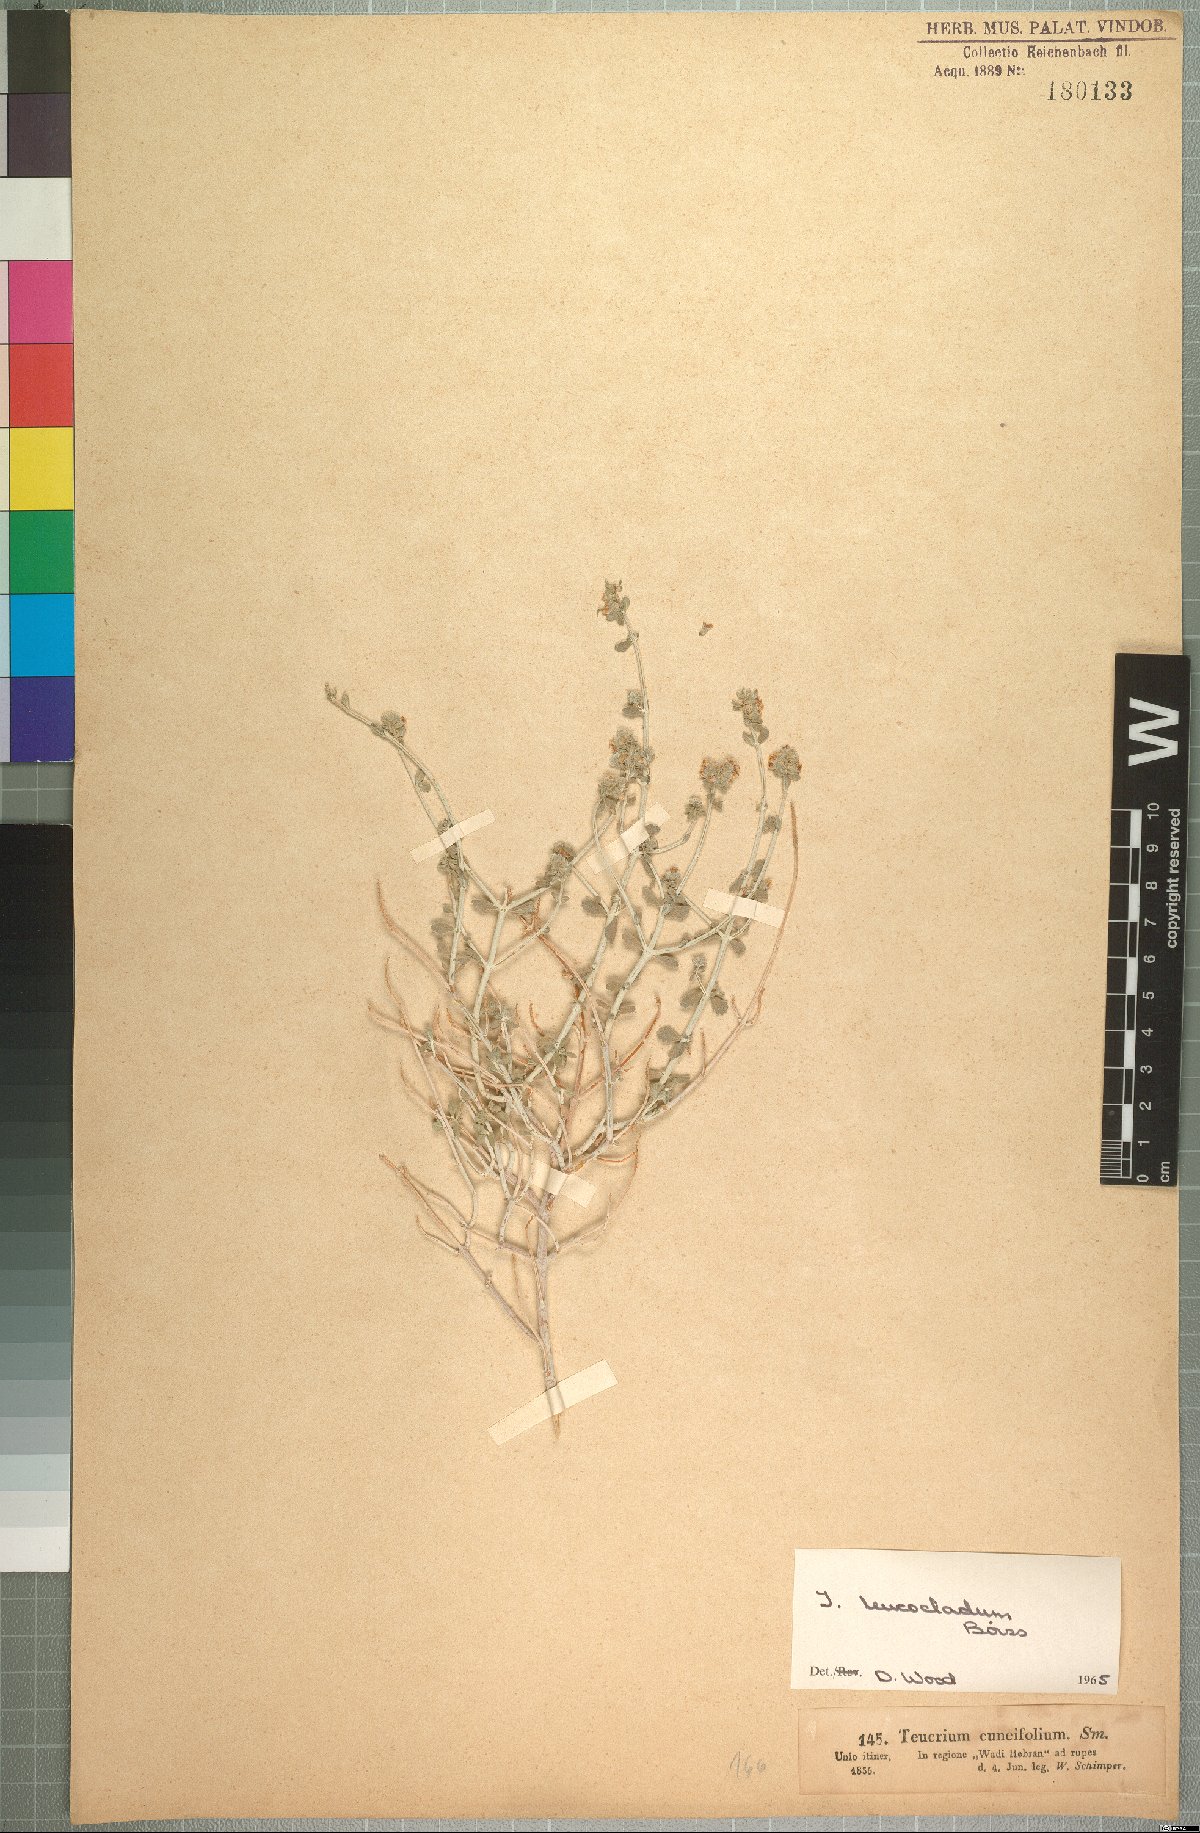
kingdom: Plantae
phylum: Tracheophyta
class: Magnoliopsida
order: Lamiales
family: Lamiaceae
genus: Teucrium
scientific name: Teucrium leucocladum
